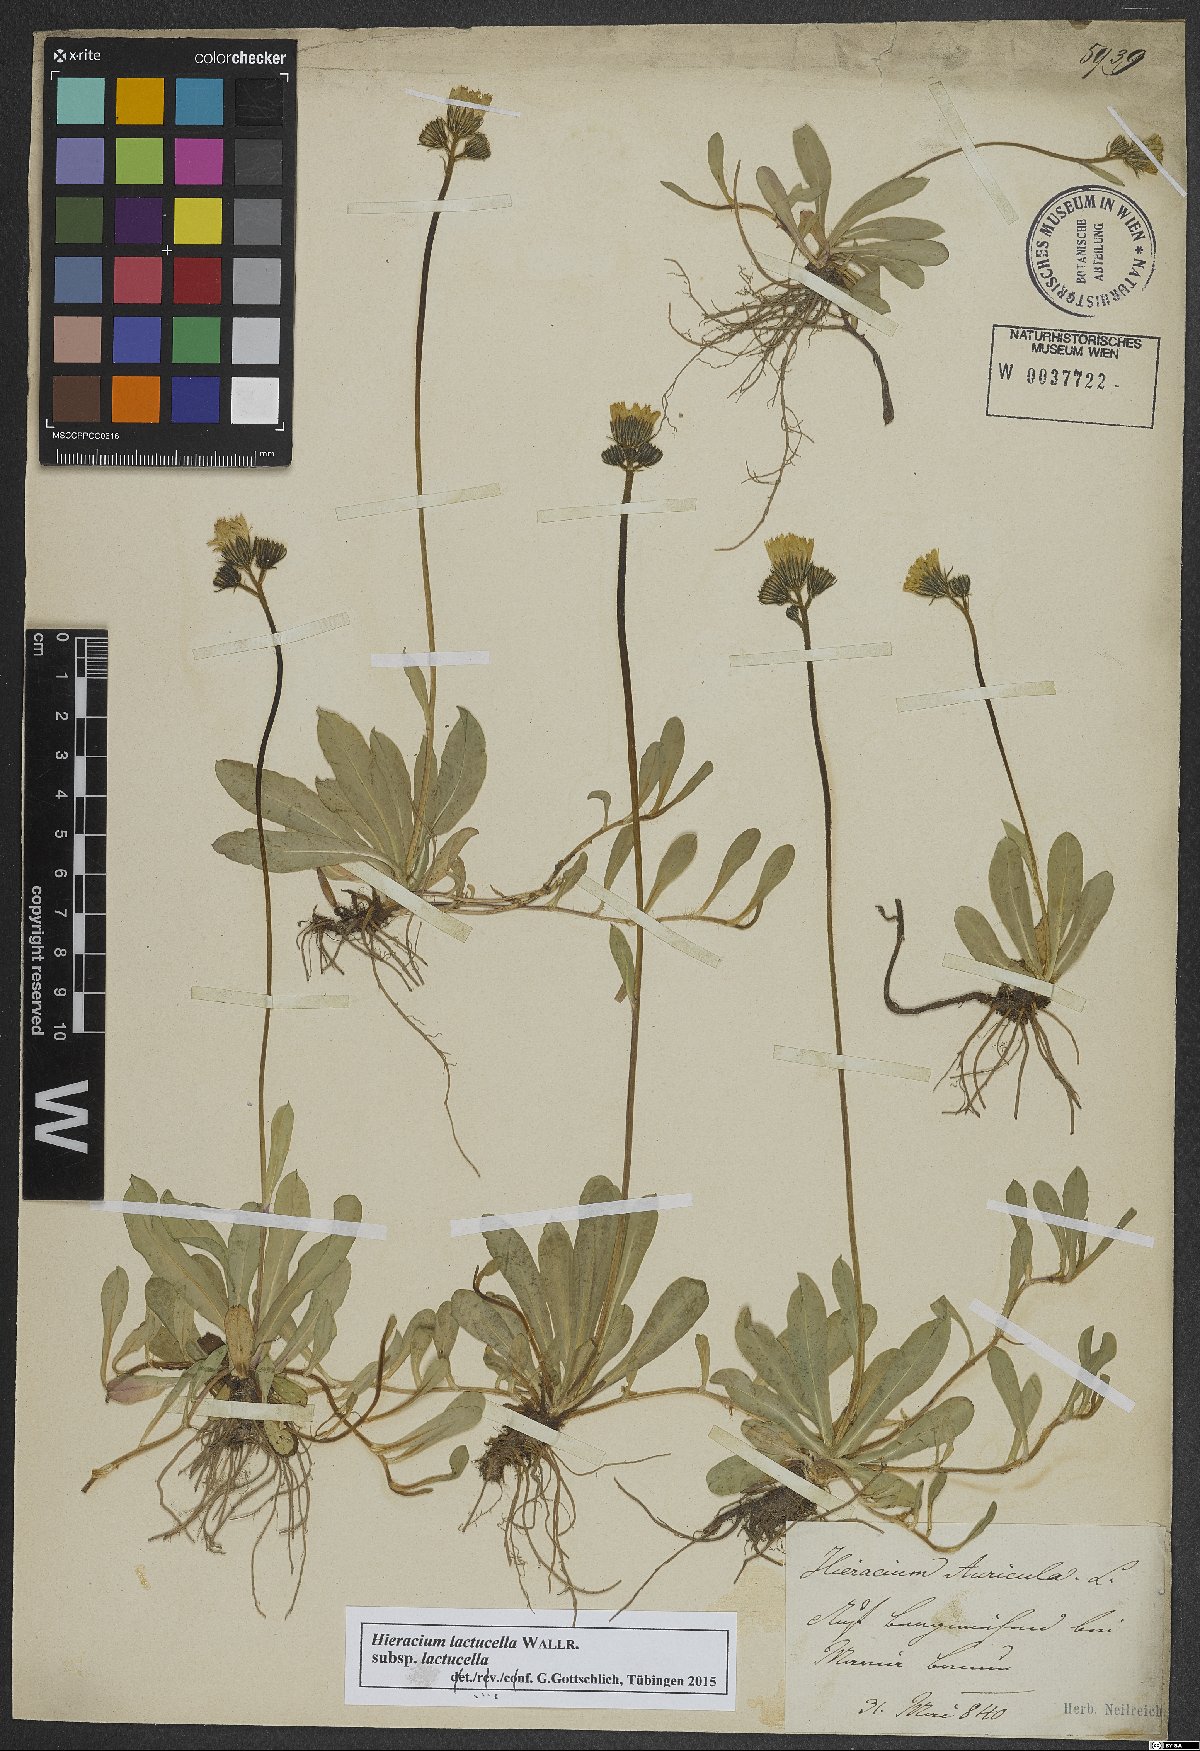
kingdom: Plantae
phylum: Tracheophyta
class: Magnoliopsida
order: Asterales
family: Asteraceae
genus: Pilosella
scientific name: Pilosella lactucella
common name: Glaucous fox-and-cubs
